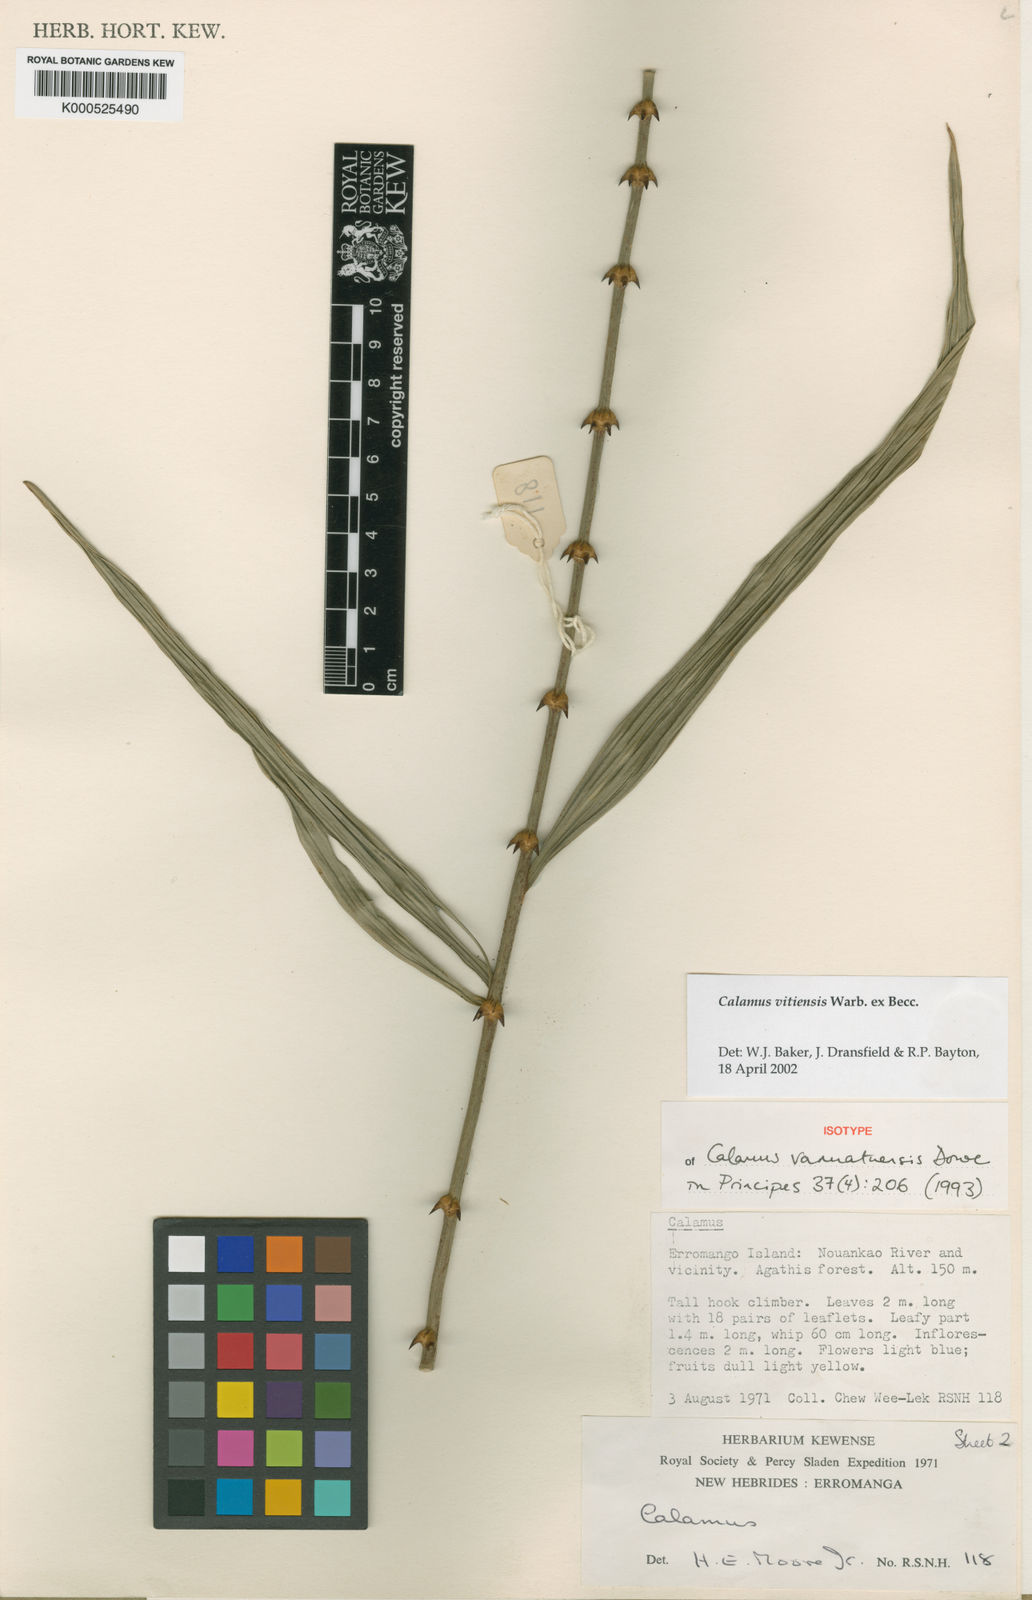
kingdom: Plantae
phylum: Tracheophyta
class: Liliopsida
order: Arecales
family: Arecaceae
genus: Calamus
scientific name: Calamus vitiensis
